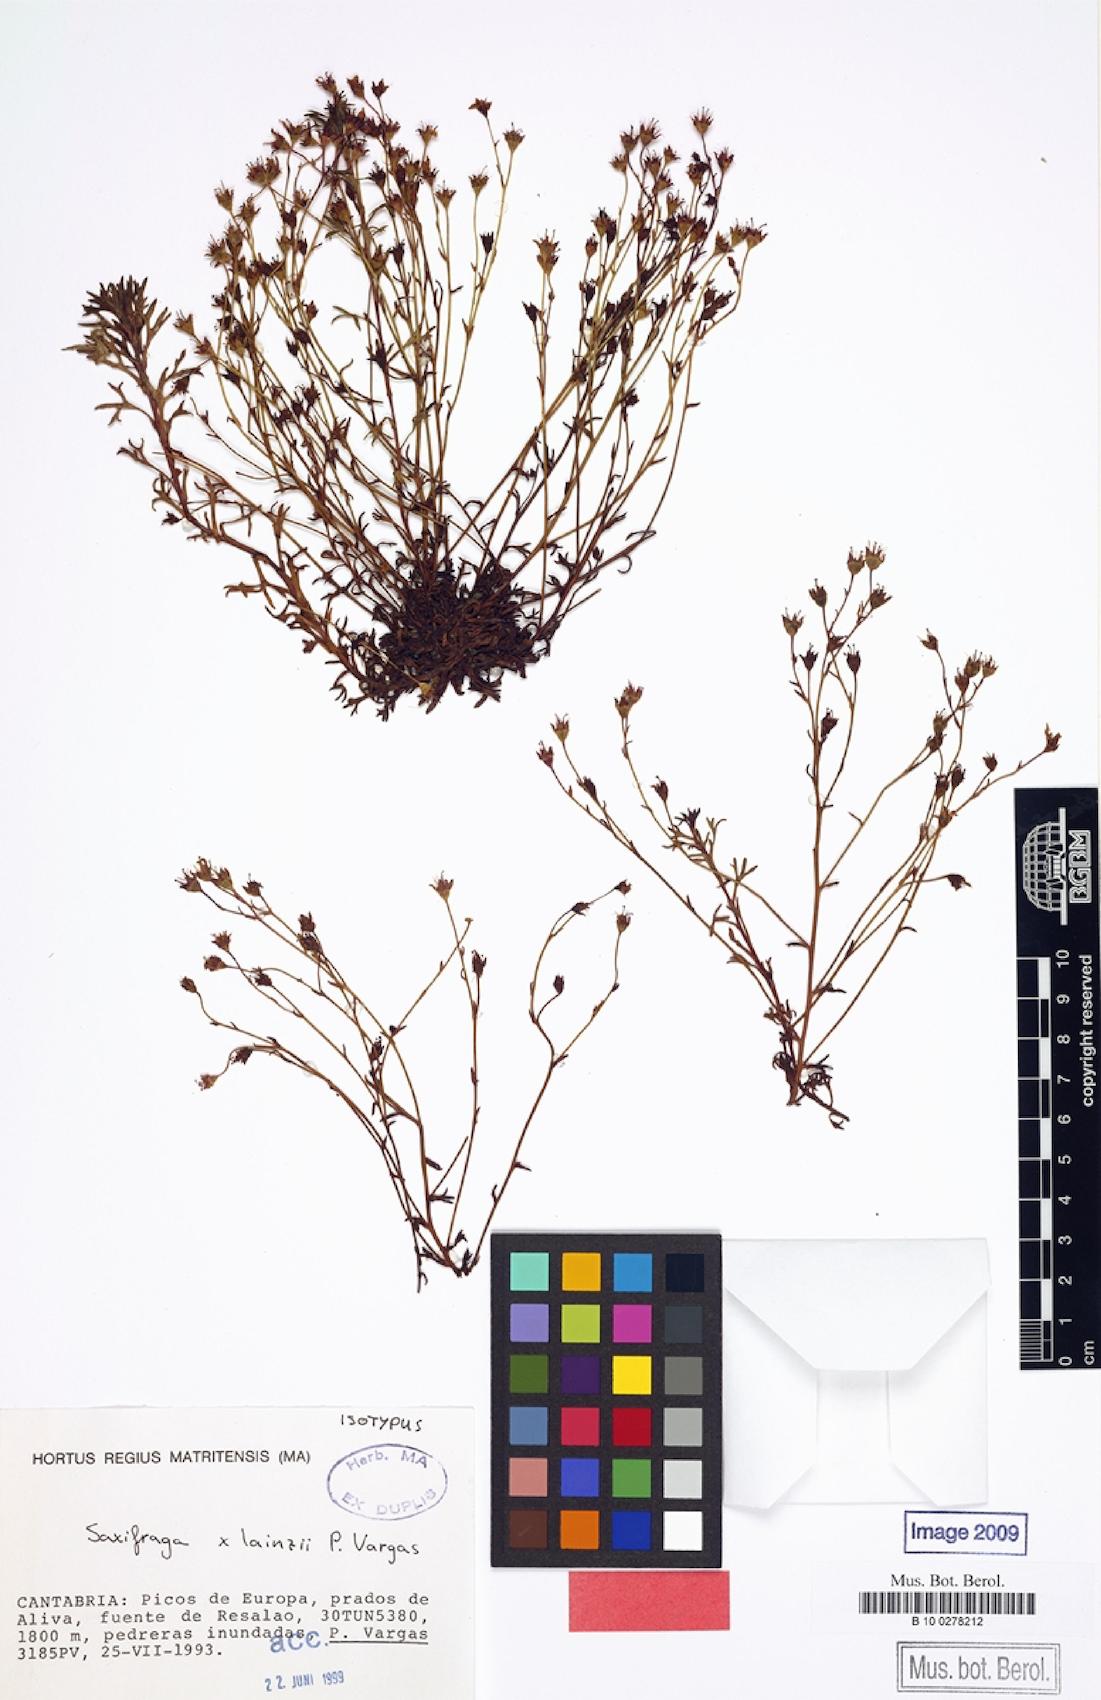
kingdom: Plantae
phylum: Tracheophyta
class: Magnoliopsida
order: Saxifragales
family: Saxifragaceae
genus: Saxifraga
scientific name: Saxifraga lainzii
